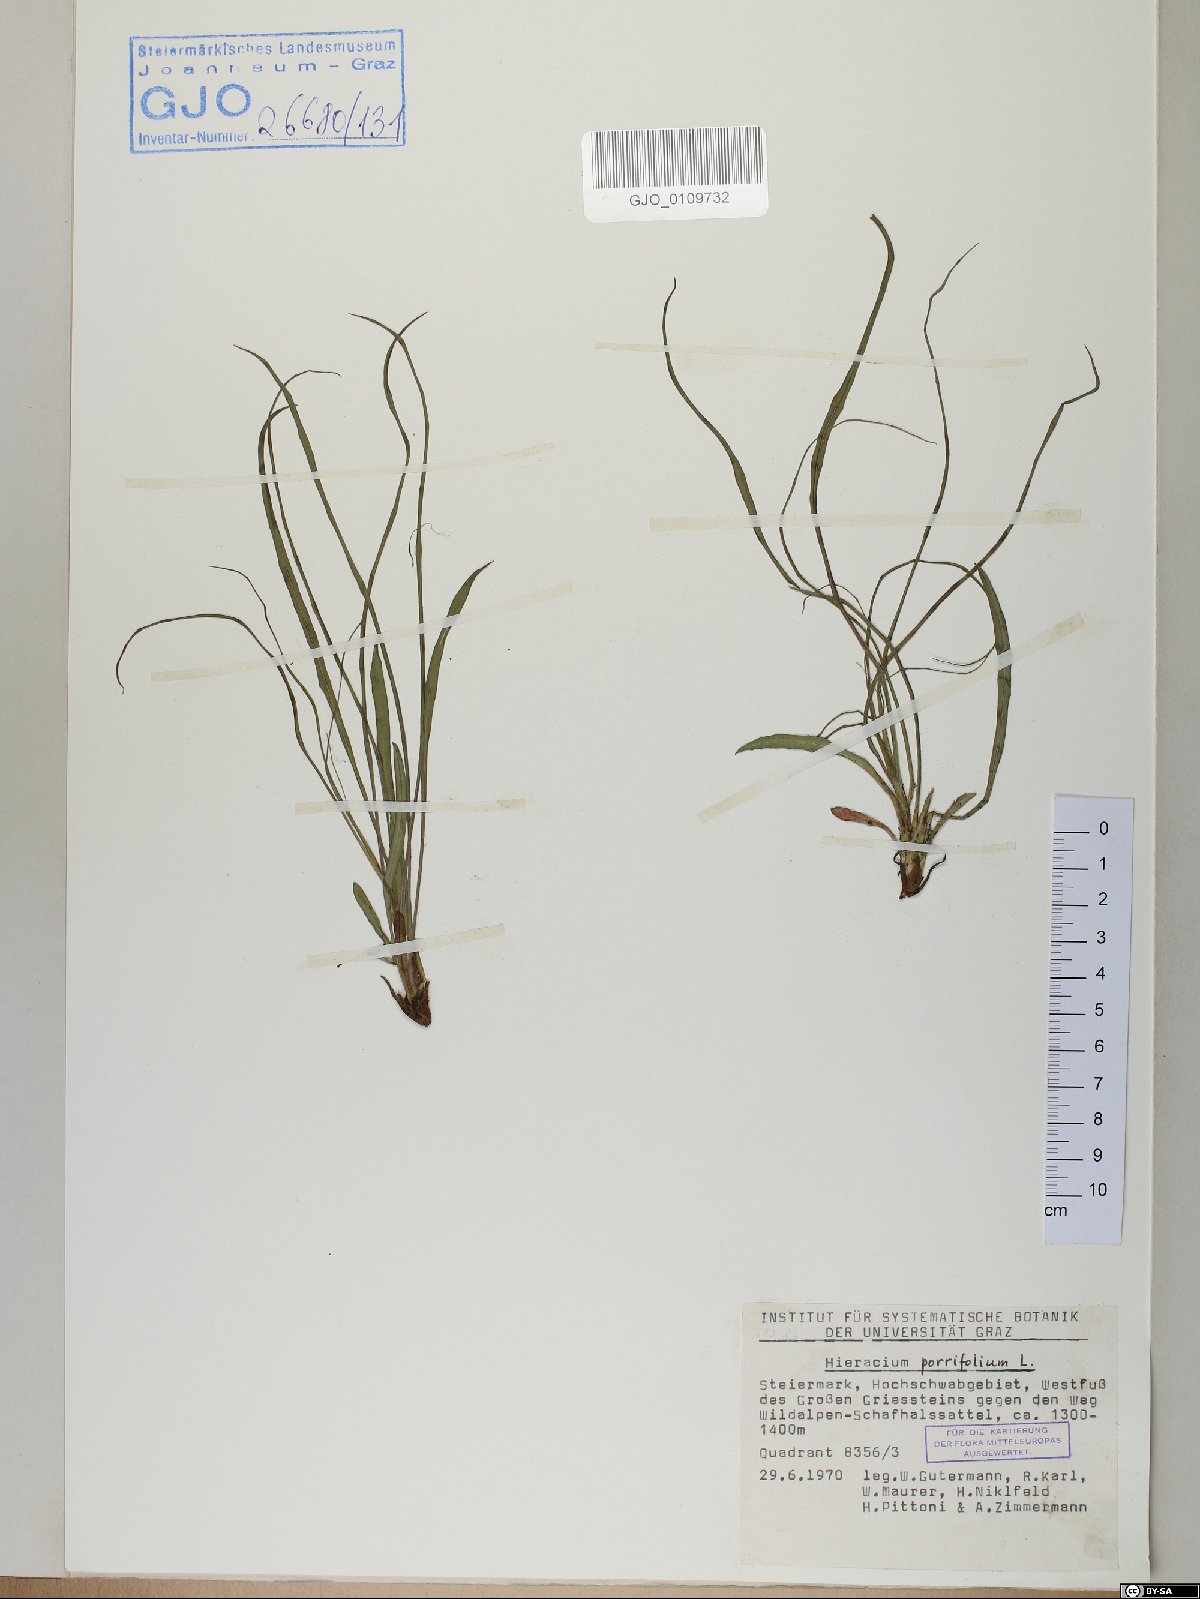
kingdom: Plantae
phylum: Tracheophyta
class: Magnoliopsida
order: Asterales
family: Asteraceae
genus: Hieracium
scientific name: Hieracium porrifolium
